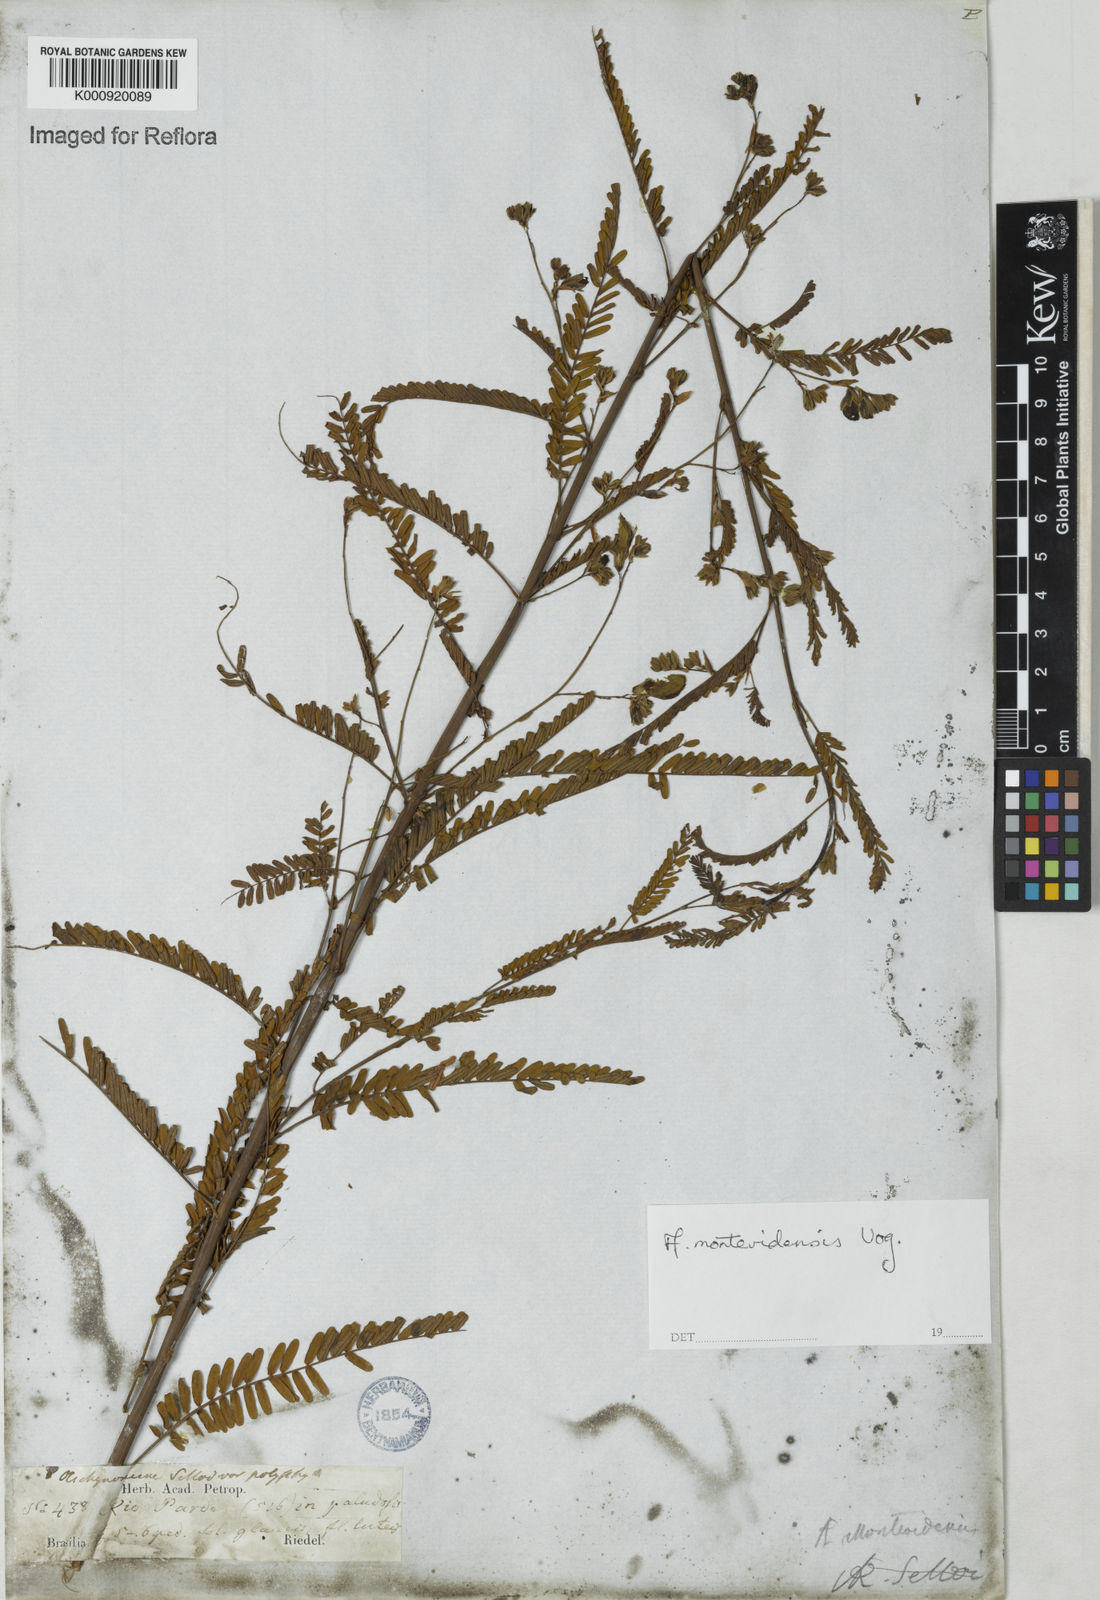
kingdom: Plantae
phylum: Tracheophyta
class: Magnoliopsida
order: Fabales
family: Fabaceae
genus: Aeschynomene
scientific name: Aeschynomene montevidensis
